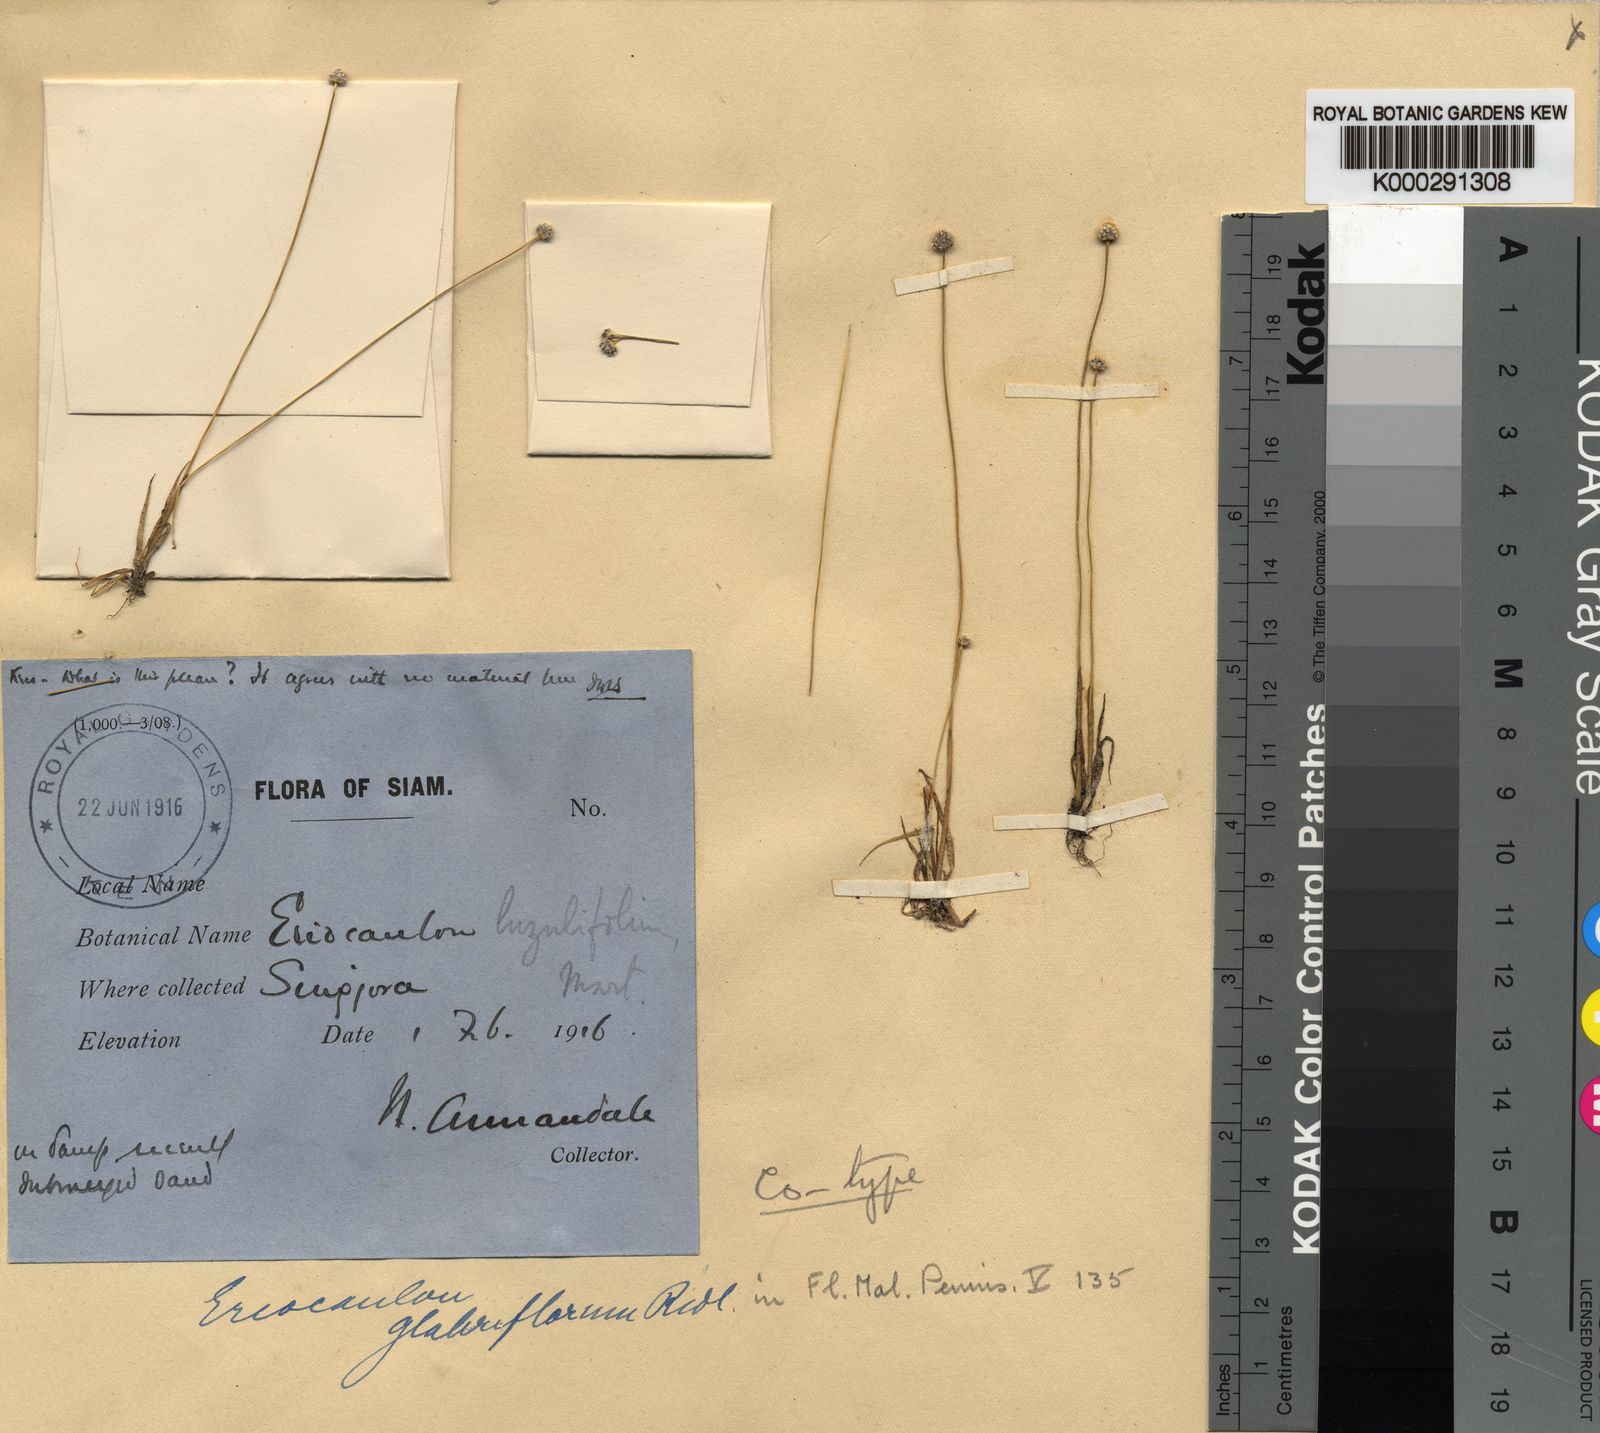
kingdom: Plantae
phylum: Tracheophyta
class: Liliopsida
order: Poales
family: Eriocaulaceae
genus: Eriocaulon
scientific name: Eriocaulon truncatum
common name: Short pipe-wort
